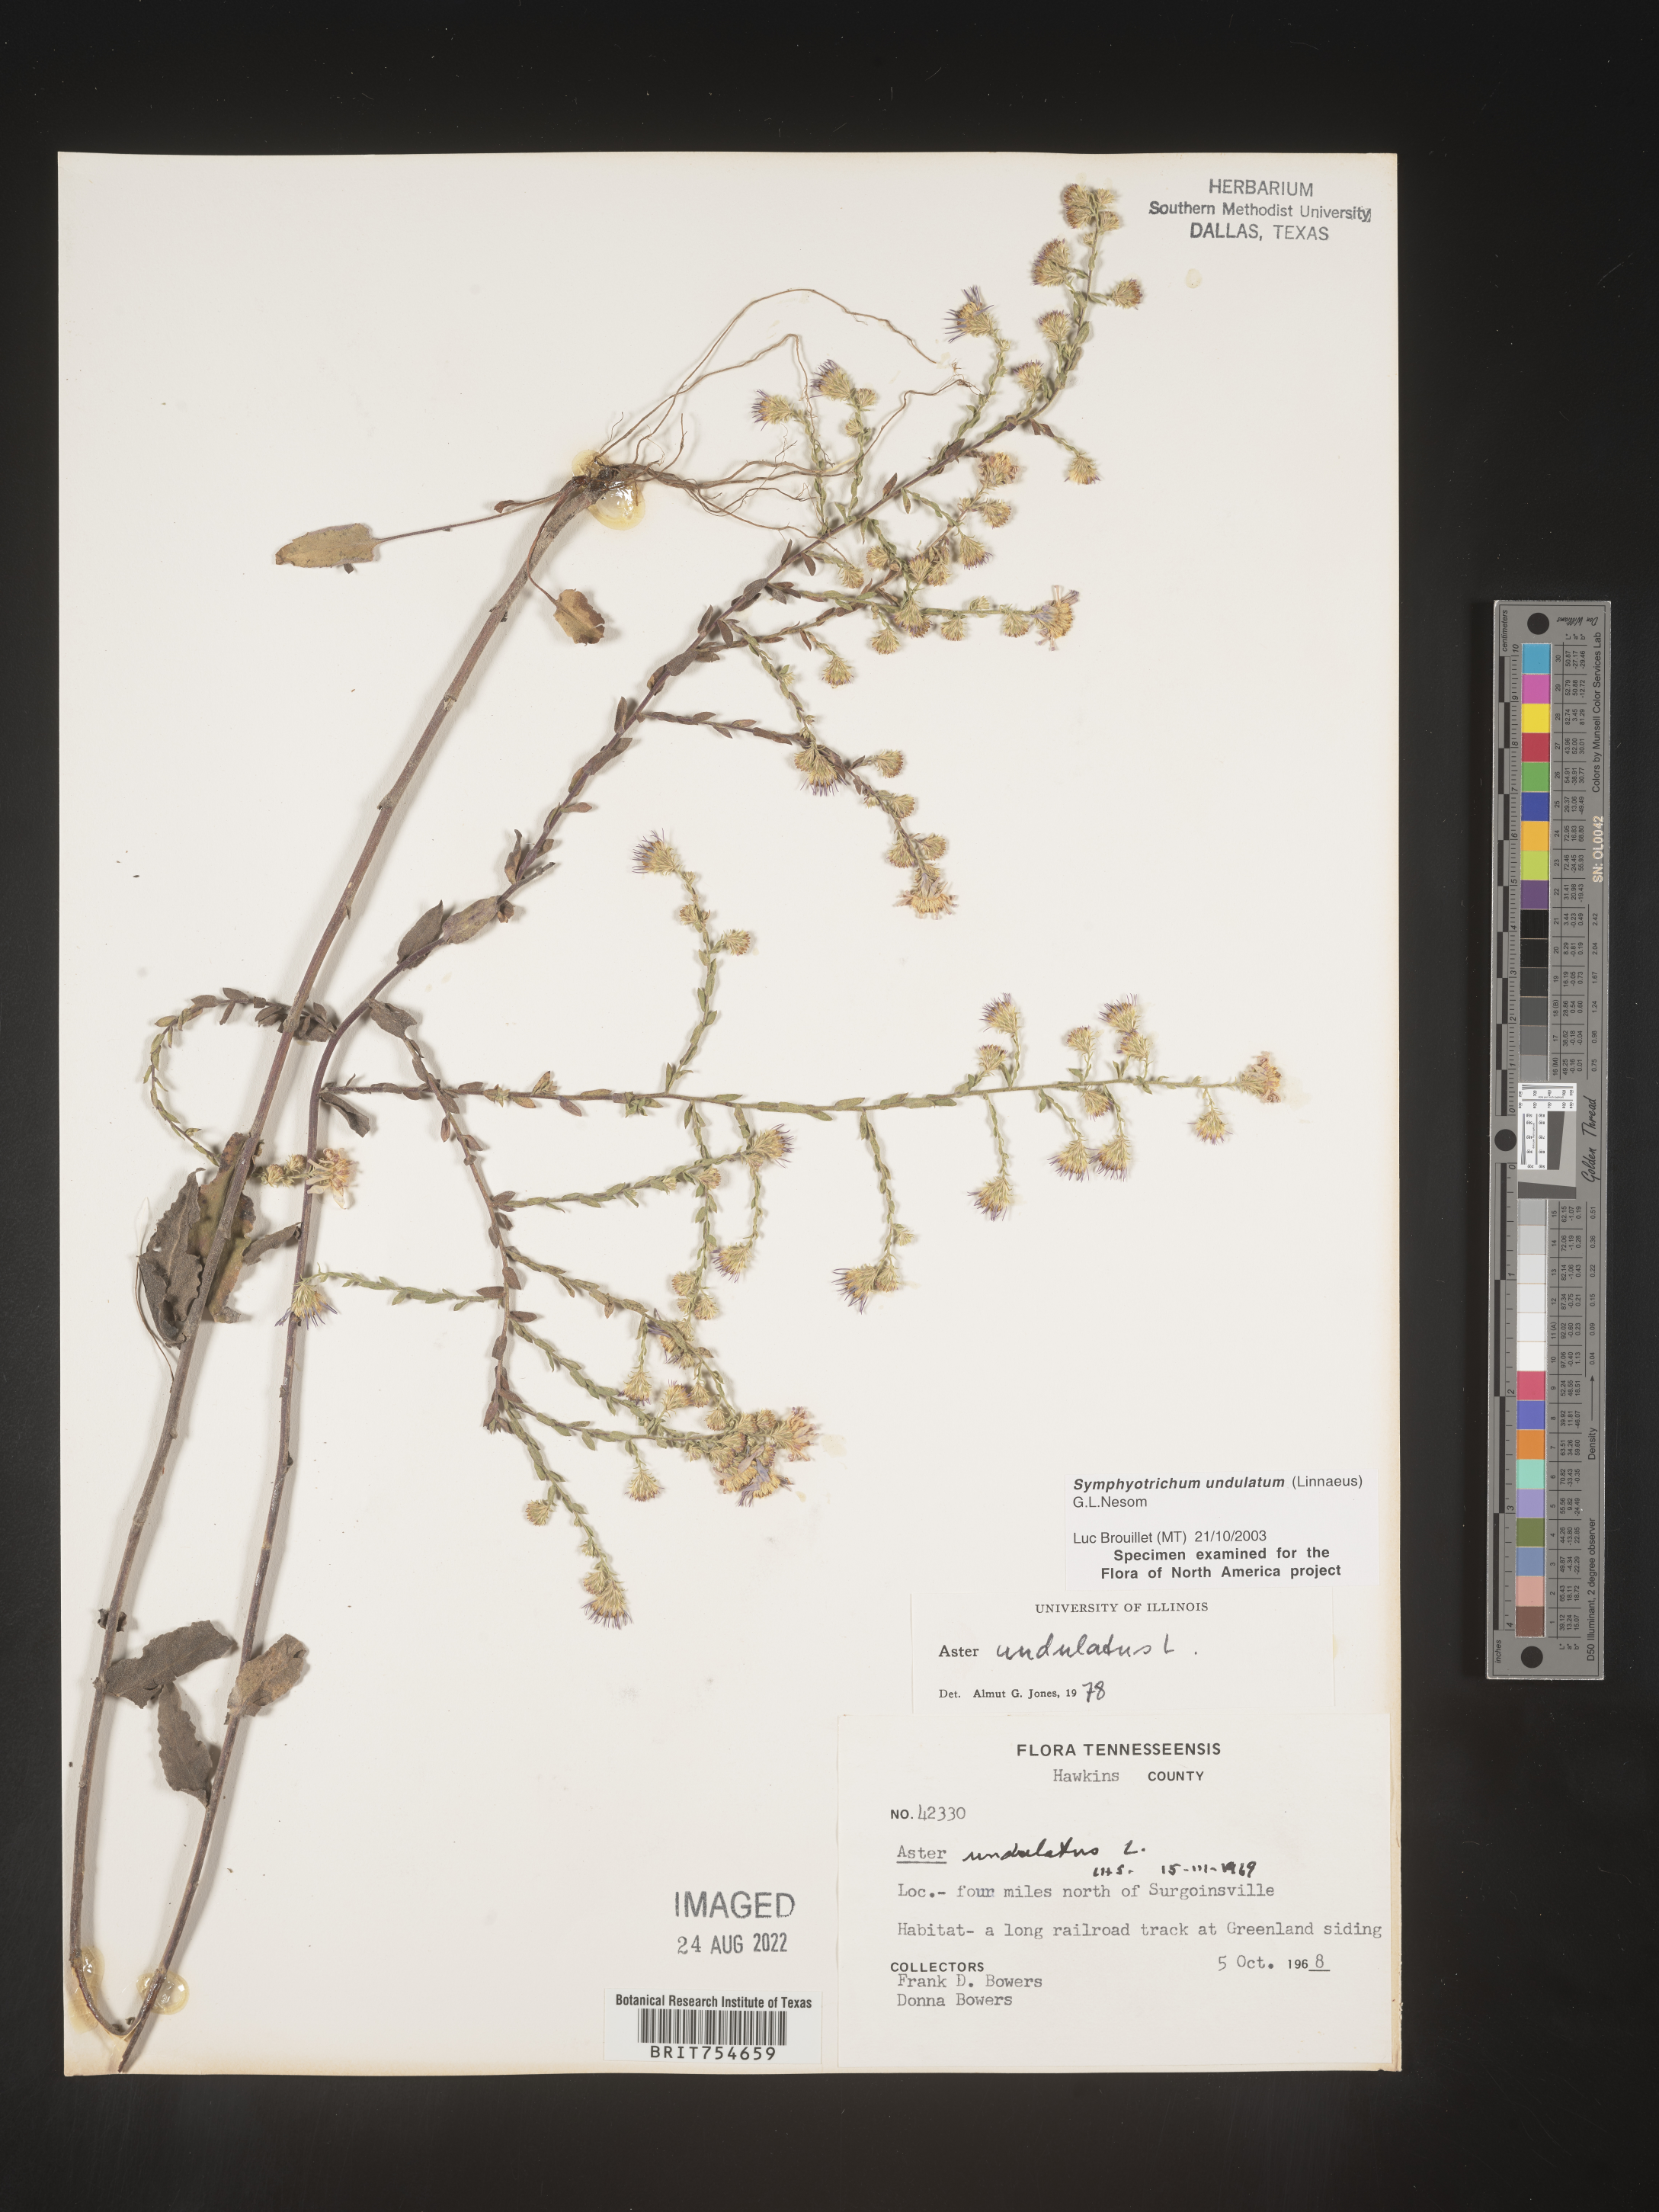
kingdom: Plantae
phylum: Tracheophyta
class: Magnoliopsida
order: Asterales
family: Asteraceae
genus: Symphyotrichum
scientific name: Symphyotrichum undulatum
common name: Clasping heart-leaf aster
